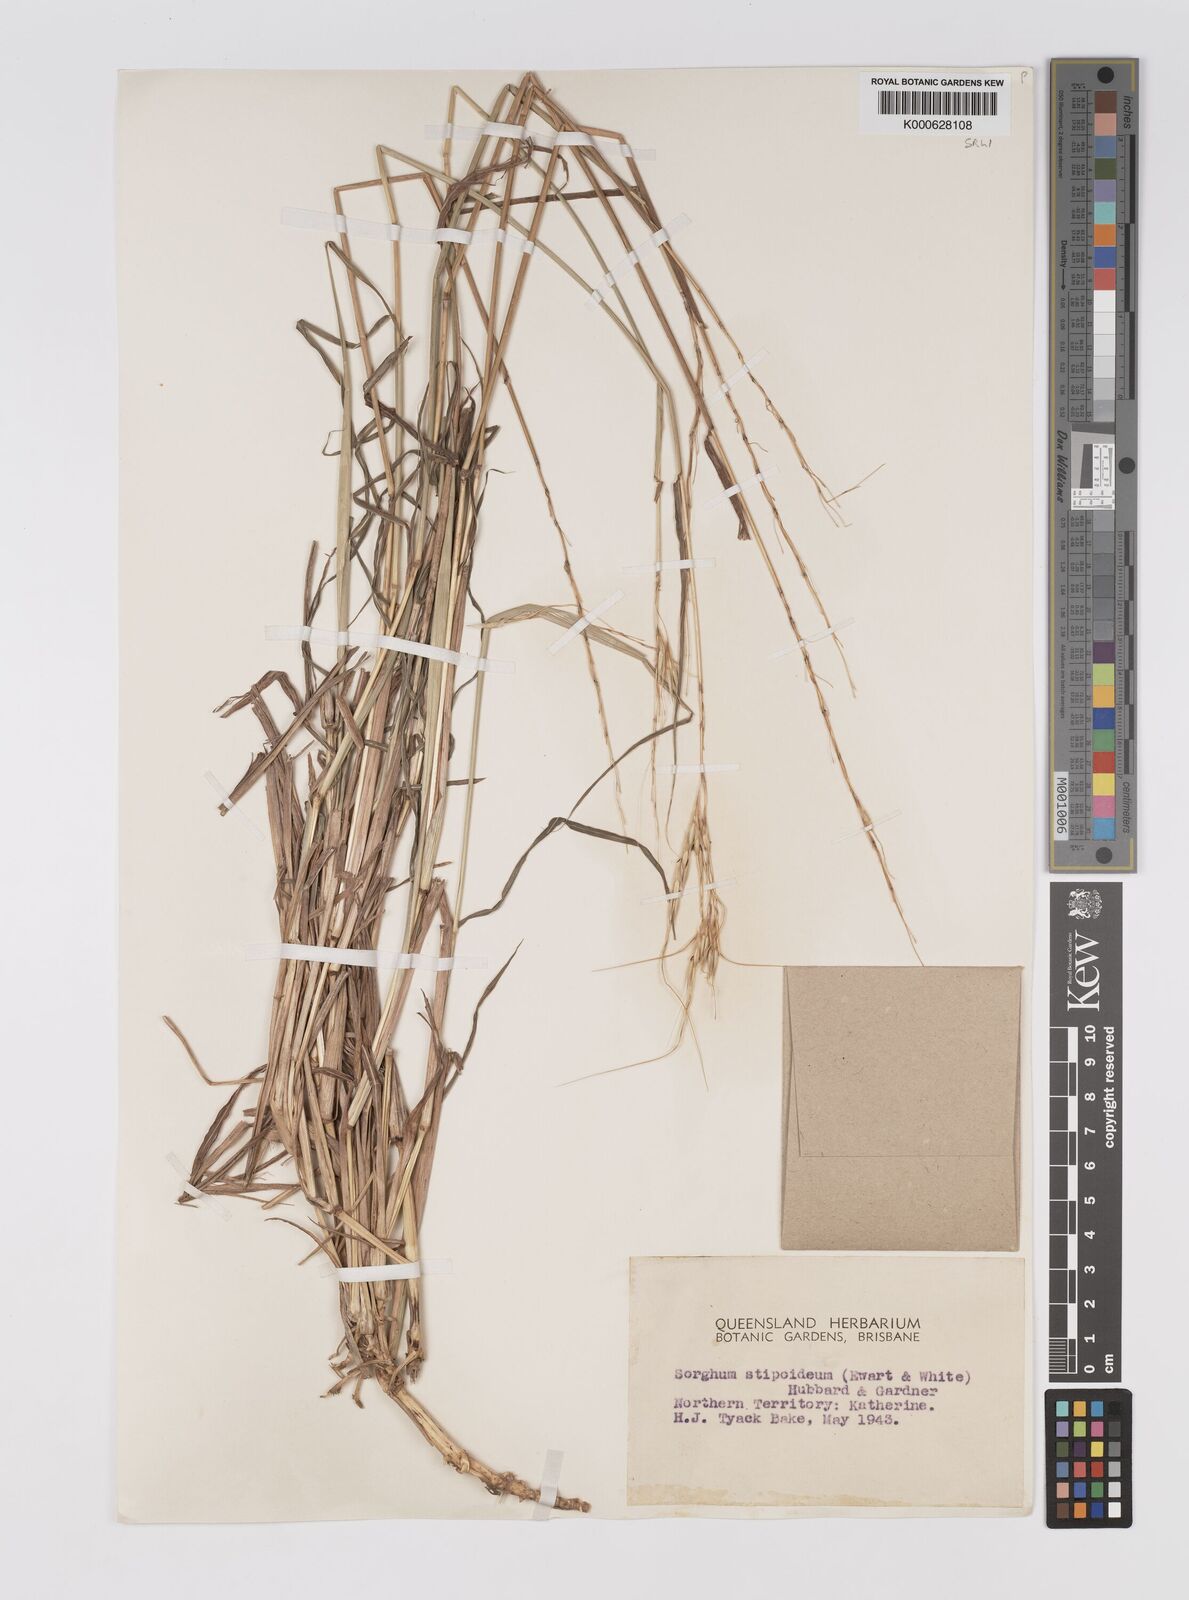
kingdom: Plantae
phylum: Tracheophyta
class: Liliopsida
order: Poales
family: Poaceae
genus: Sarga
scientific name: Sarga stipoidea
